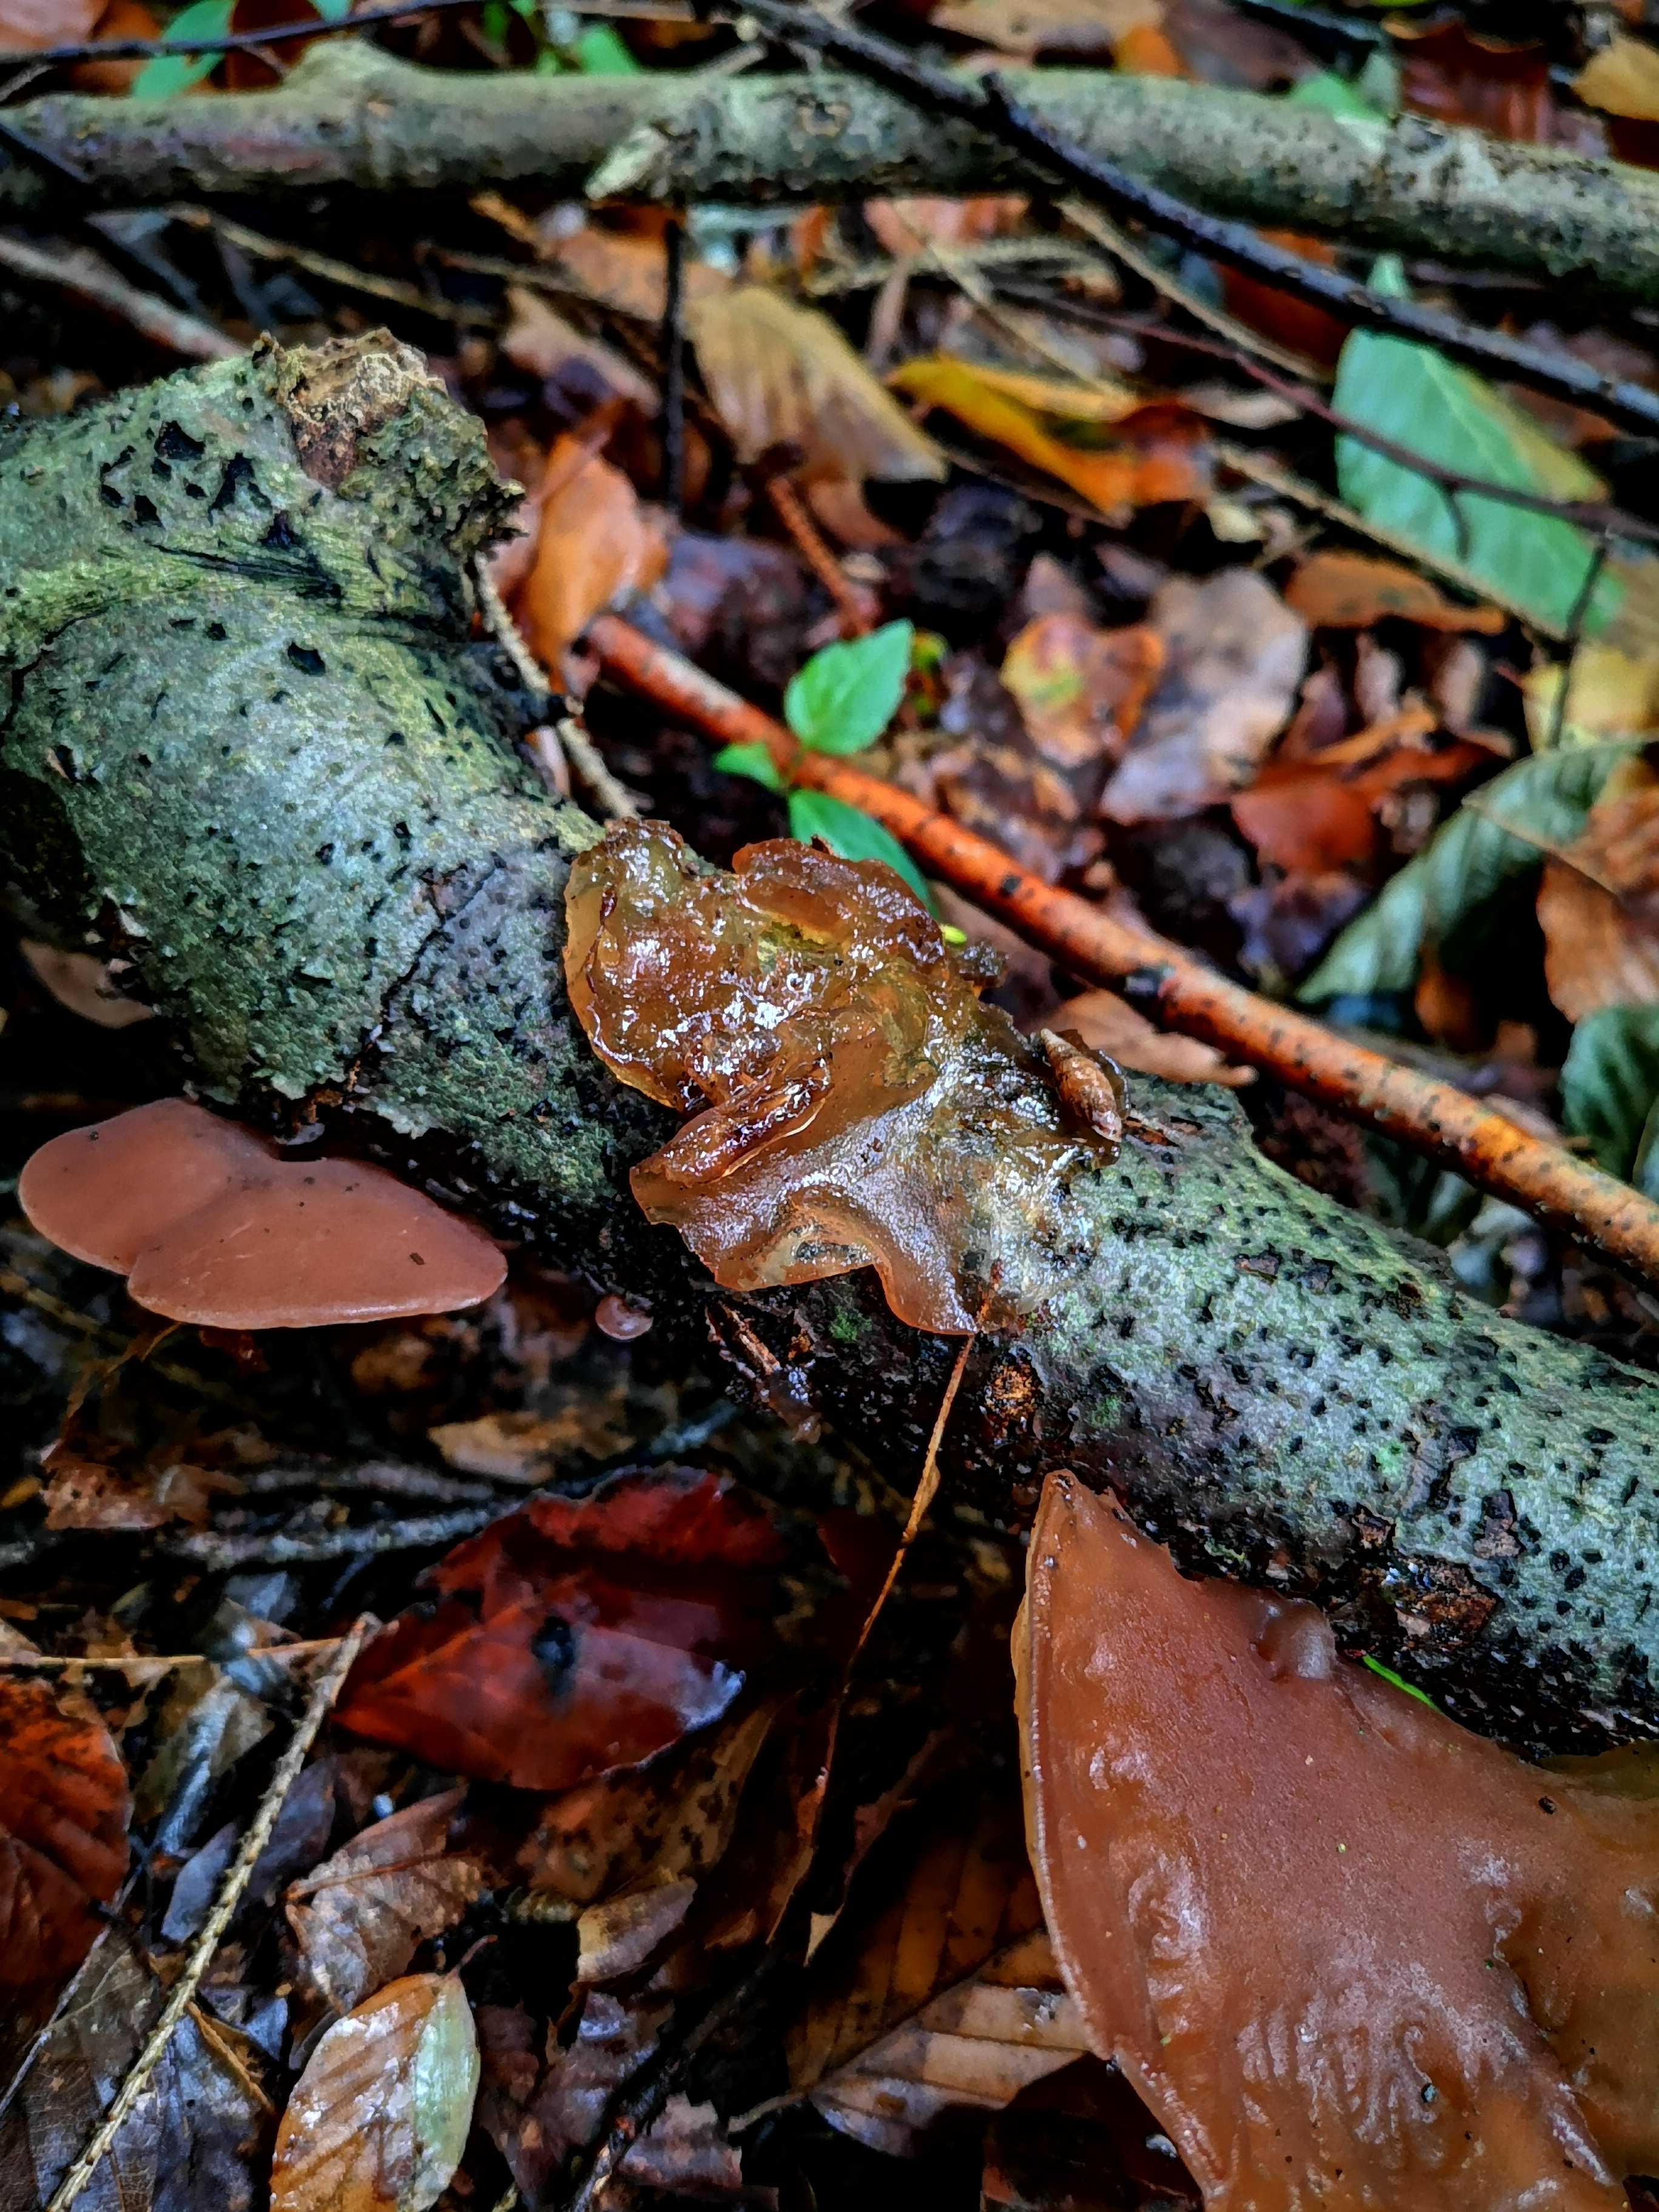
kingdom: Fungi
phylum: Basidiomycota
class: Agaricomycetes
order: Auriculariales
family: Auriculariaceae
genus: Auricularia
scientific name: Auricularia auricula-judae
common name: almindelig judasøre
